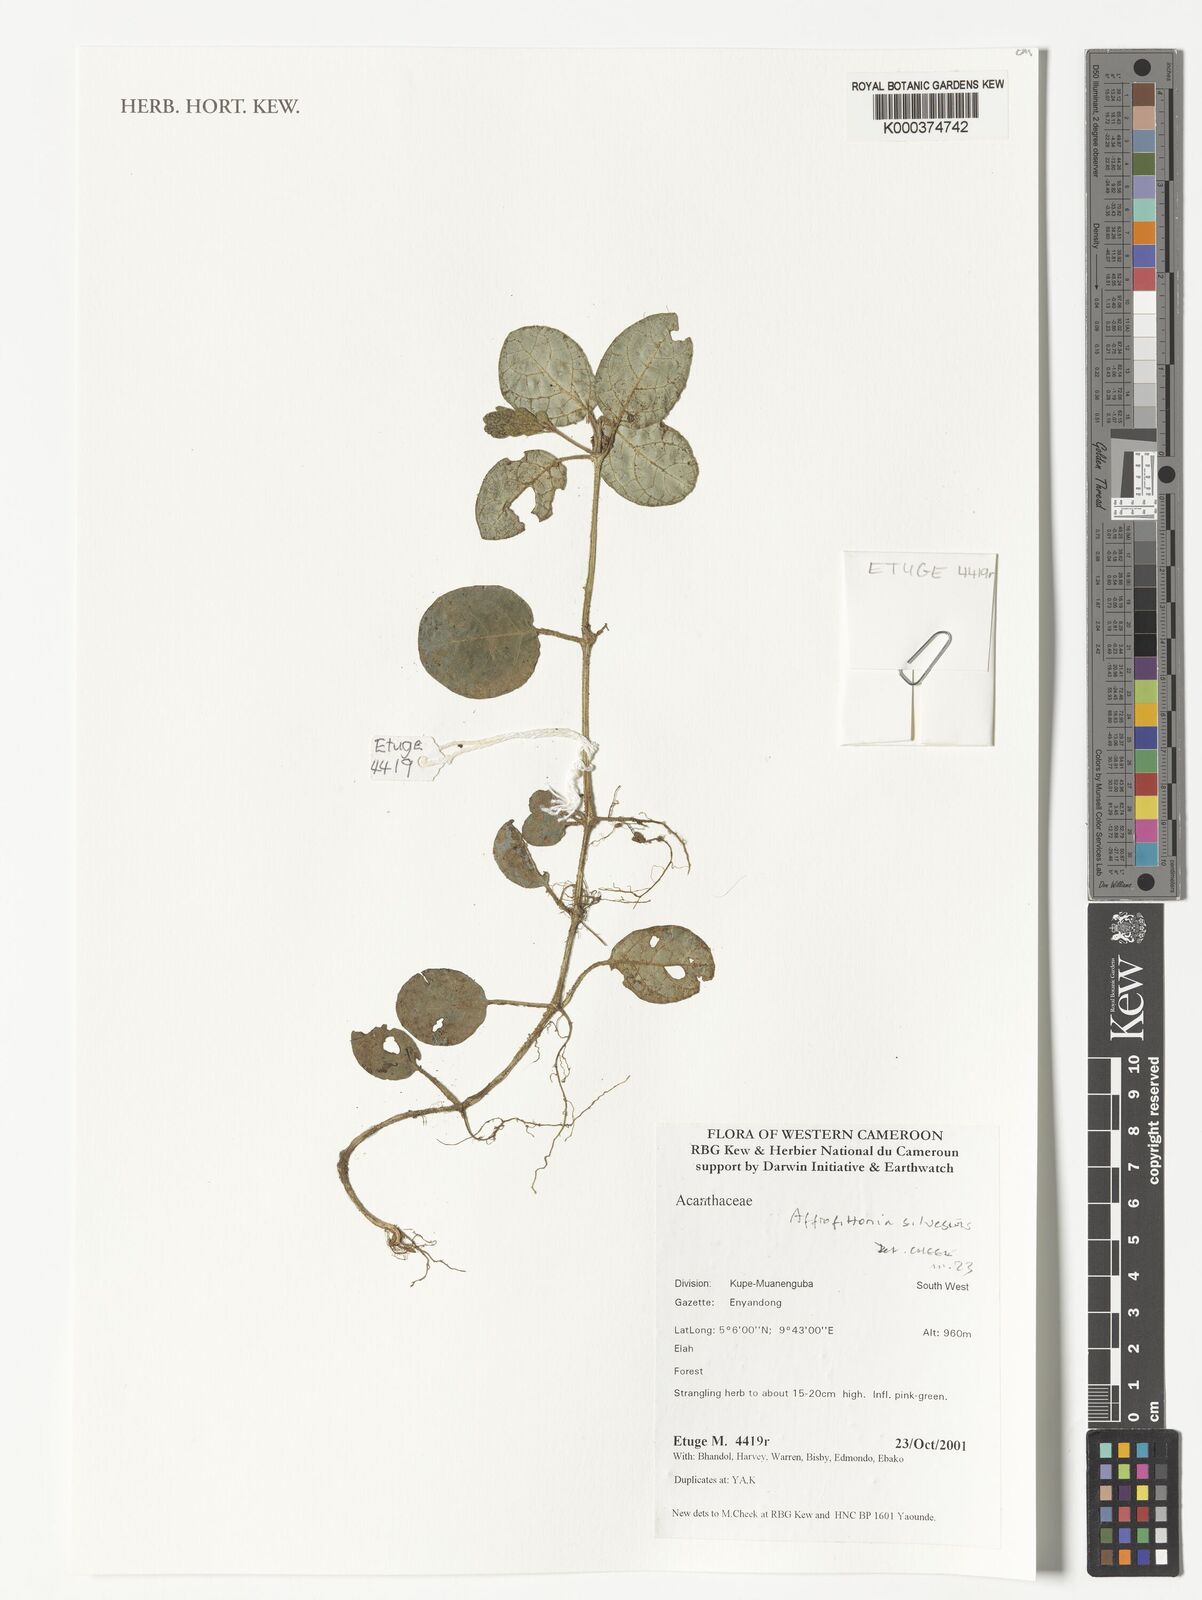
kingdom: Plantae
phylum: Tracheophyta
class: Magnoliopsida
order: Lamiales
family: Acanthaceae
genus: Afrofittonia
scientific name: Afrofittonia silvestris
